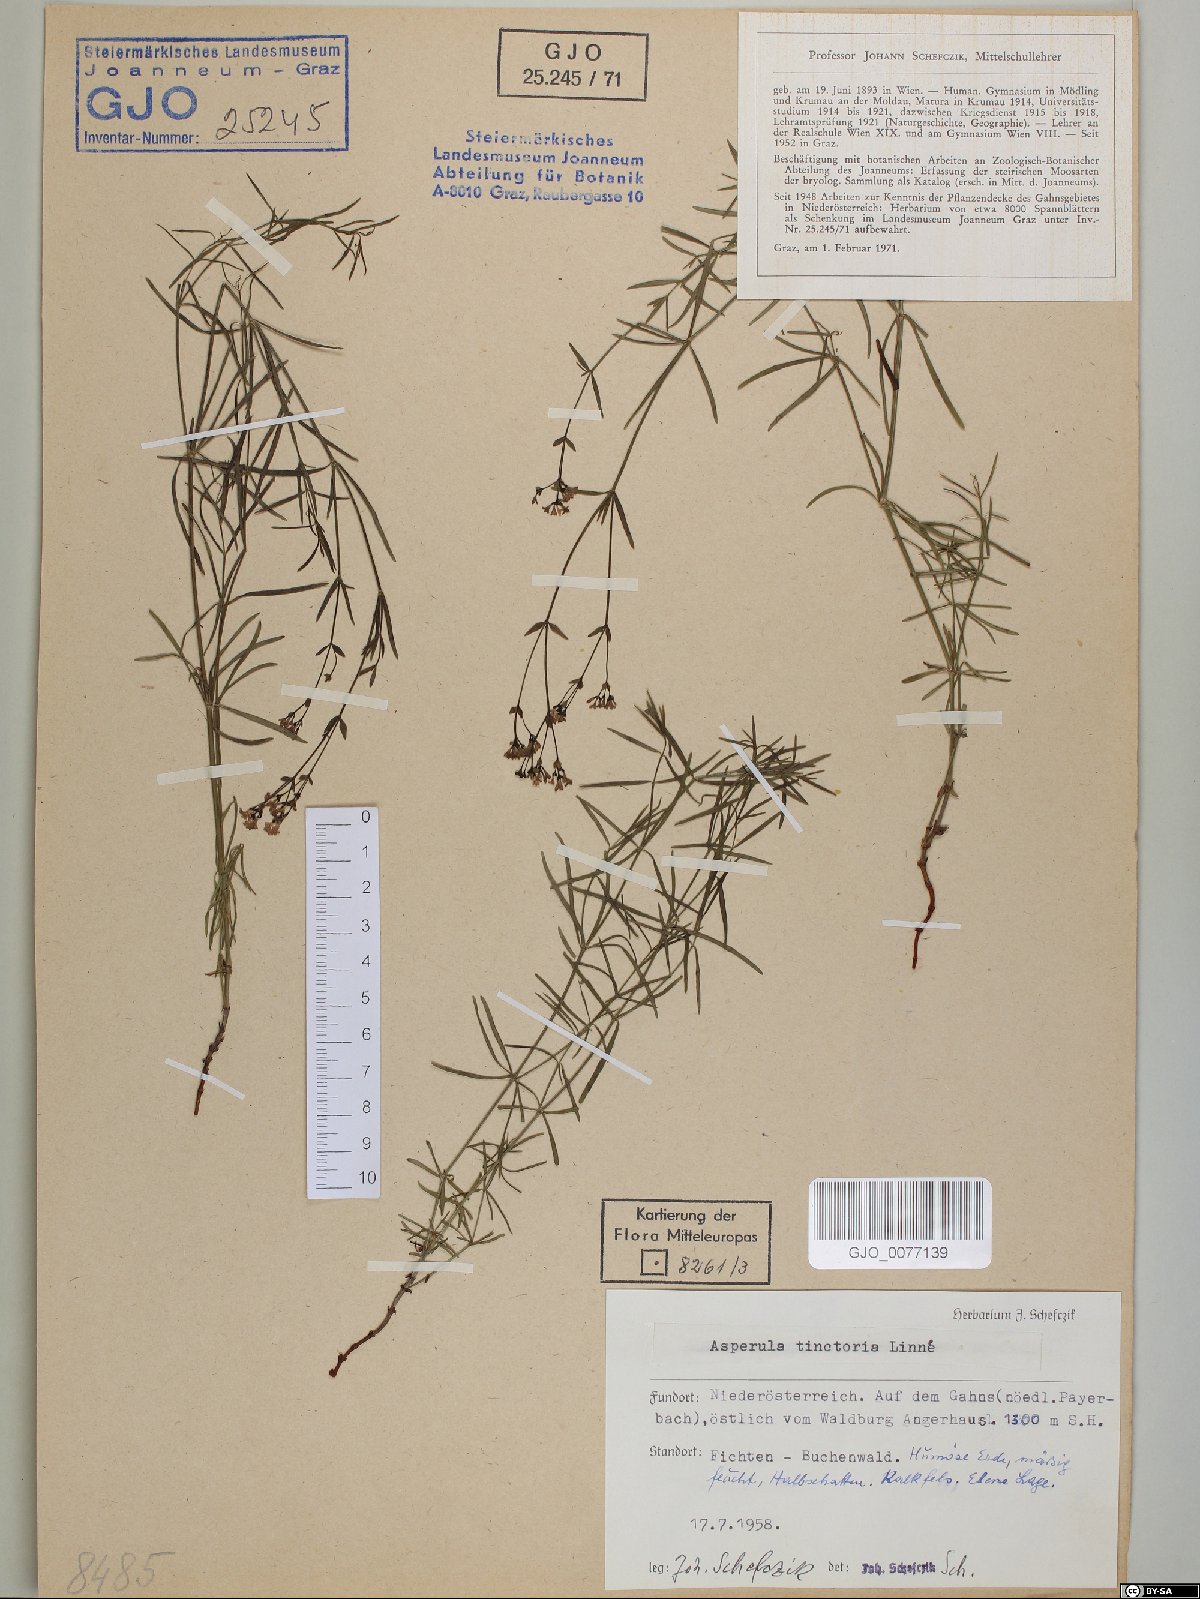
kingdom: Plantae
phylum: Tracheophyta
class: Magnoliopsida
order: Gentianales
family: Rubiaceae
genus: Asperula
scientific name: Asperula tinctoria
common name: Dyer's woodruff
